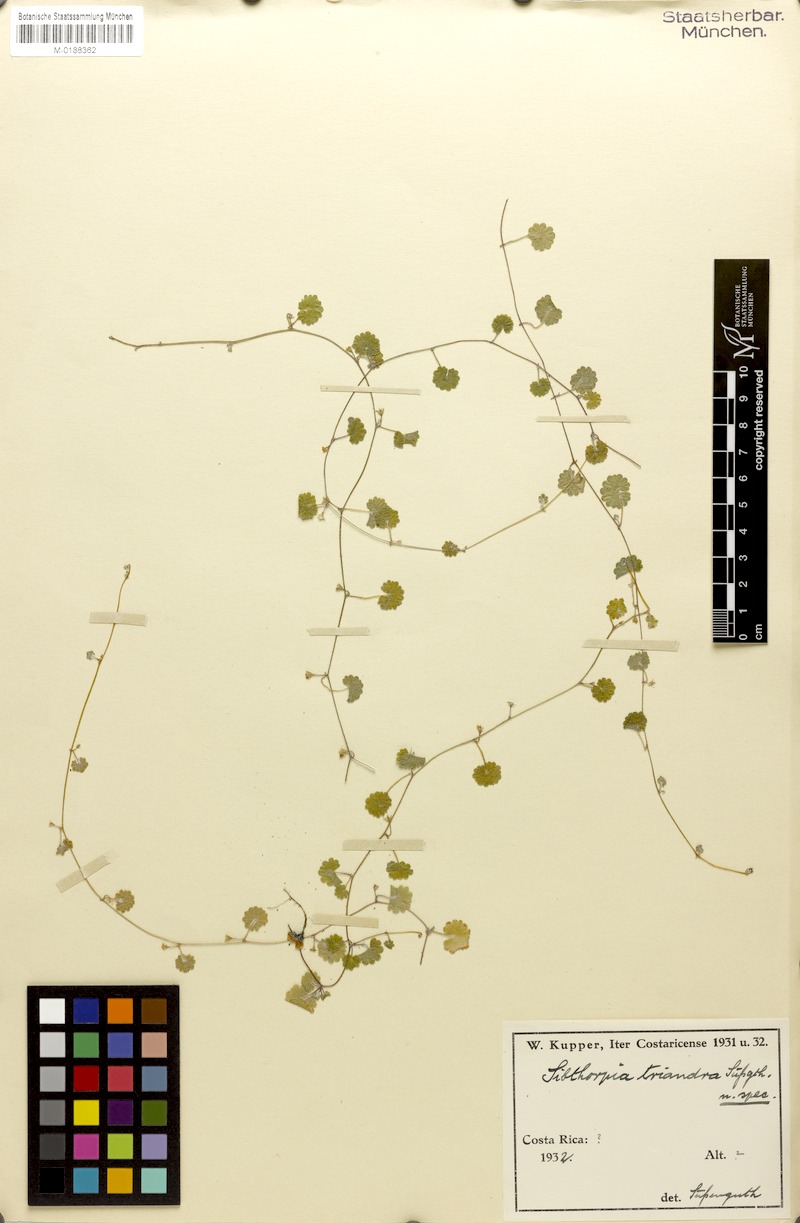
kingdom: Plantae
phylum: Tracheophyta
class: Magnoliopsida
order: Lamiales
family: Plantaginaceae
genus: Sibthorpia
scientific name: Sibthorpia repens
